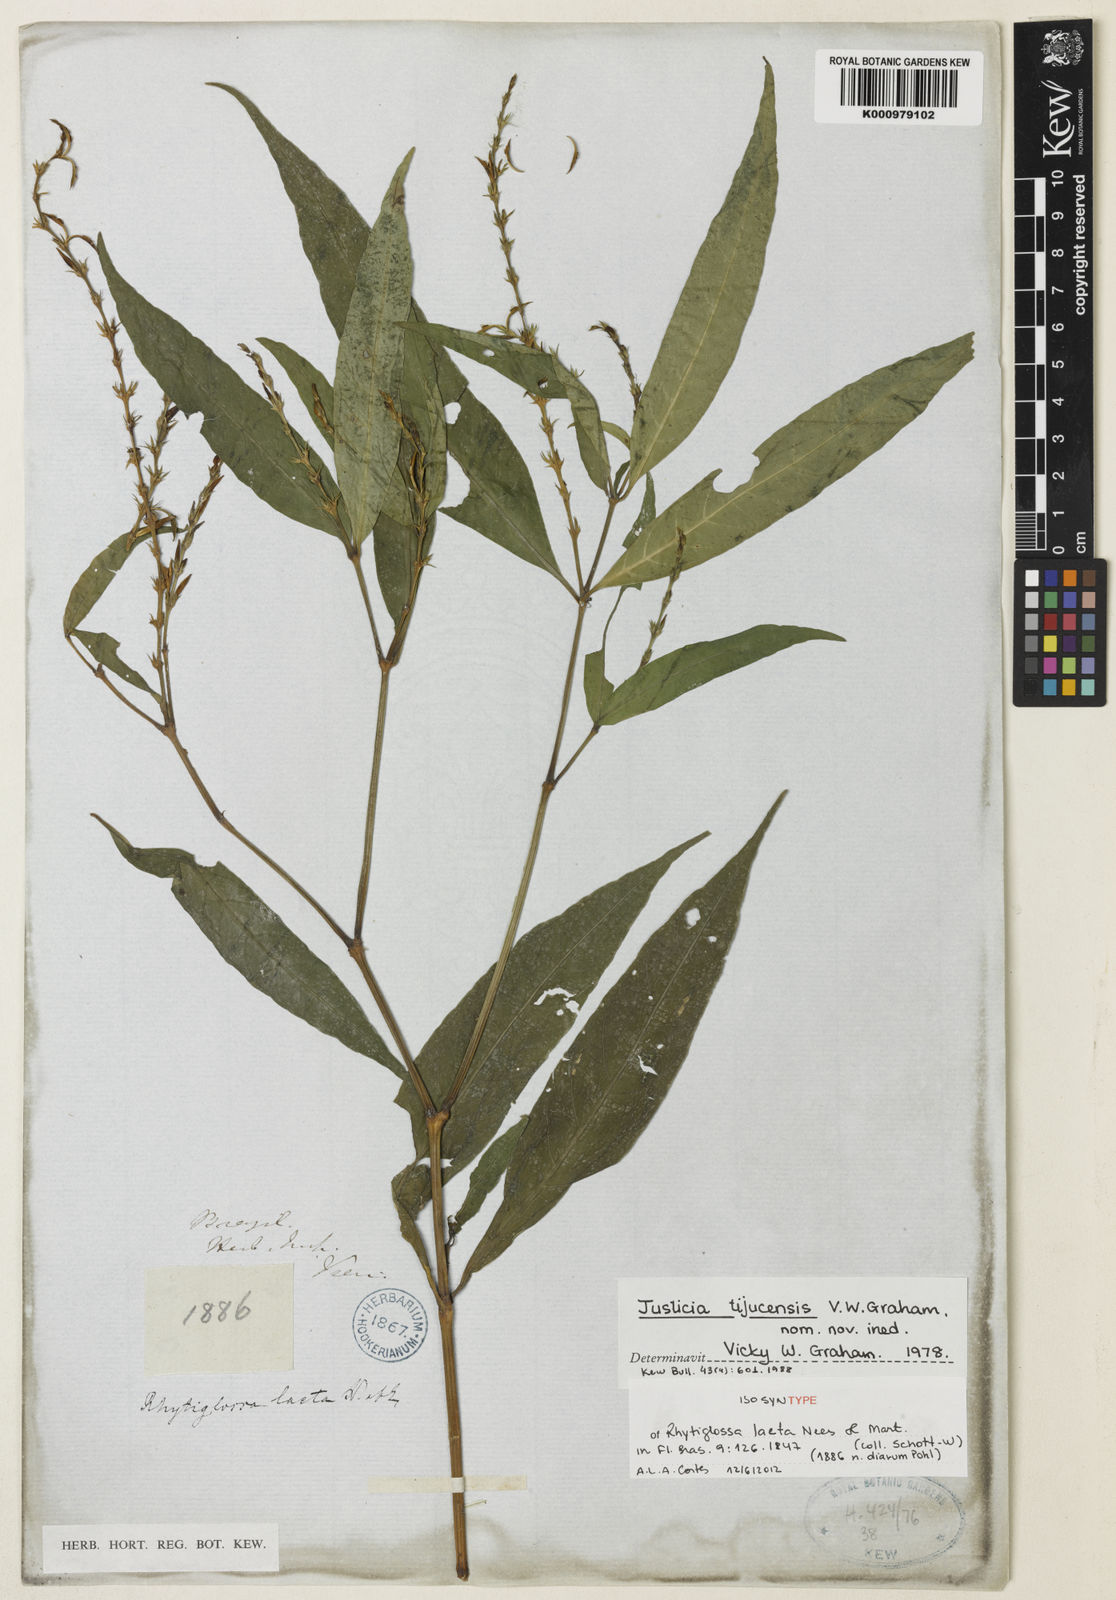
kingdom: Plantae
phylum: Tracheophyta
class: Magnoliopsida
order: Lamiales
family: Acanthaceae
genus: Dianthera
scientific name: Dianthera laeta
